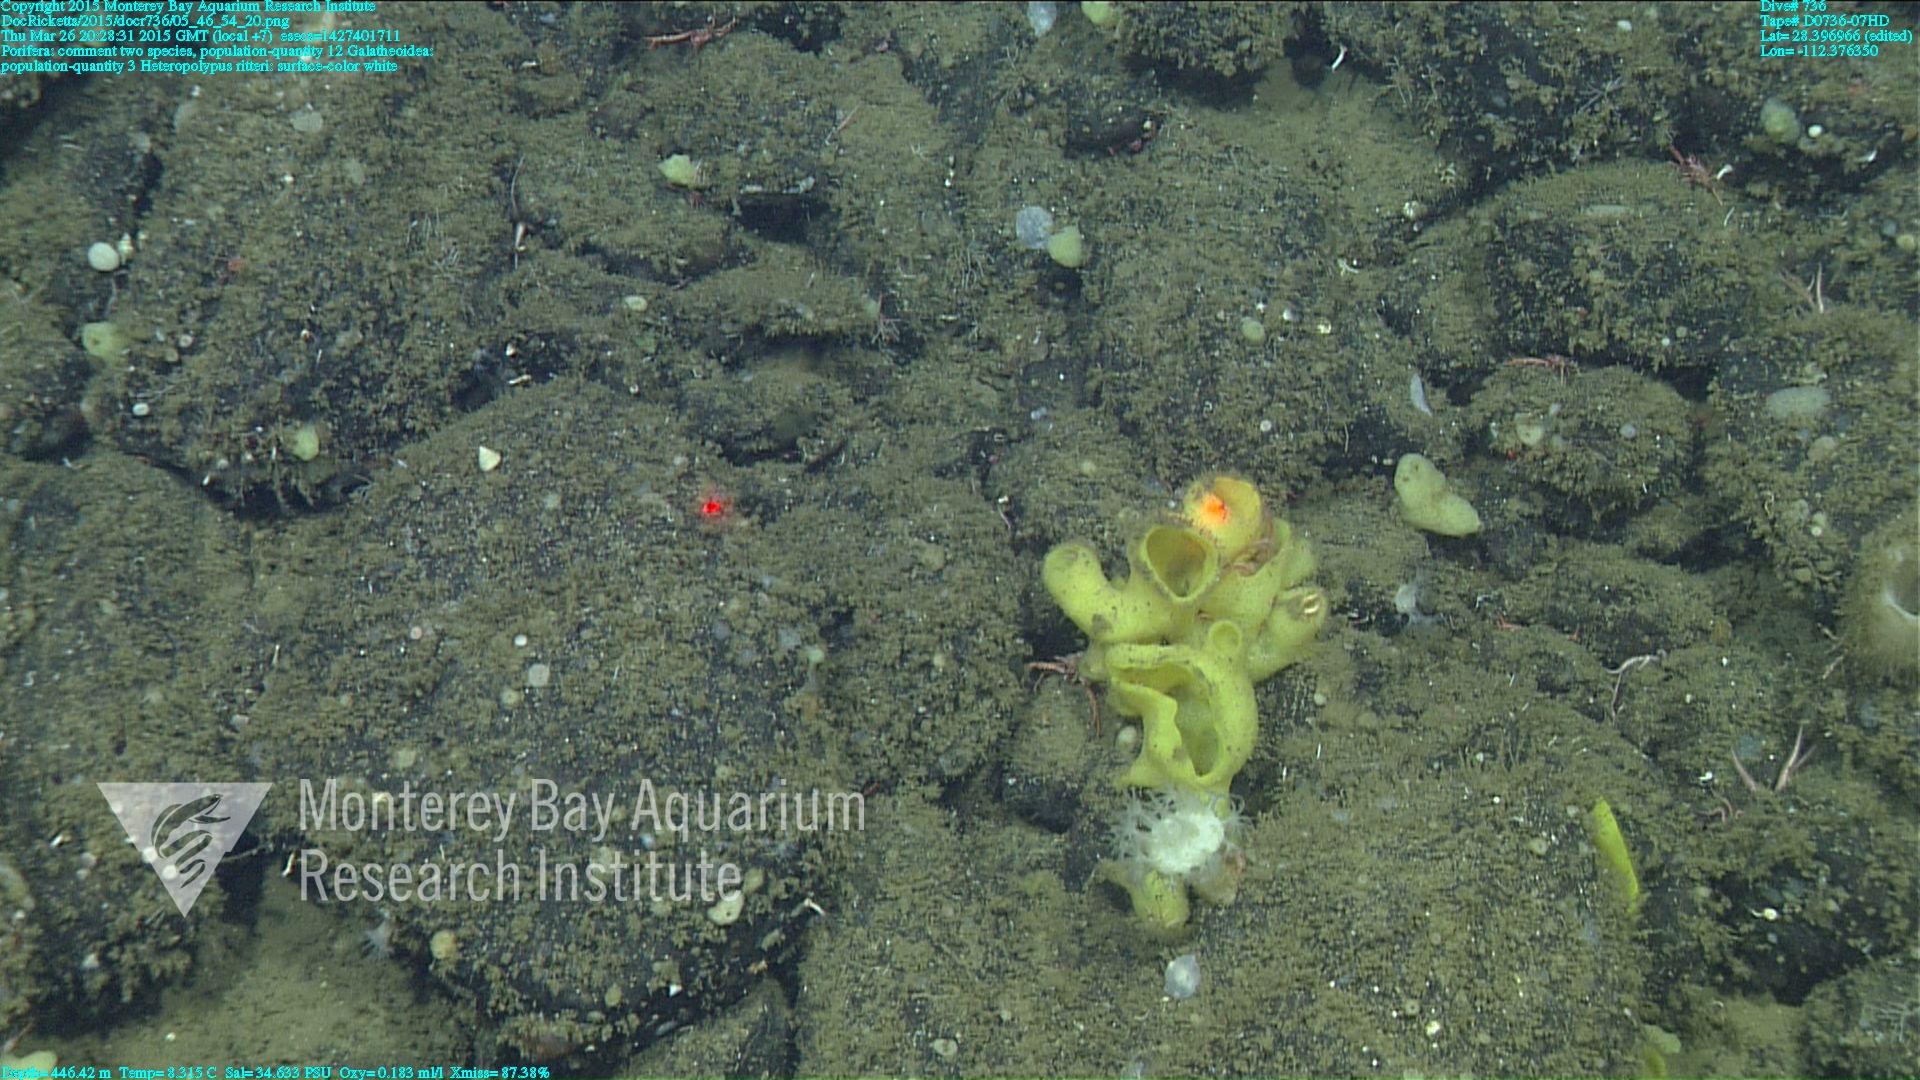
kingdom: Animalia
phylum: Cnidaria
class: Anthozoa
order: Scleralcyonacea
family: Coralliidae
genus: Heteropolypus
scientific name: Heteropolypus ritteri
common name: Ritter's soft coral
